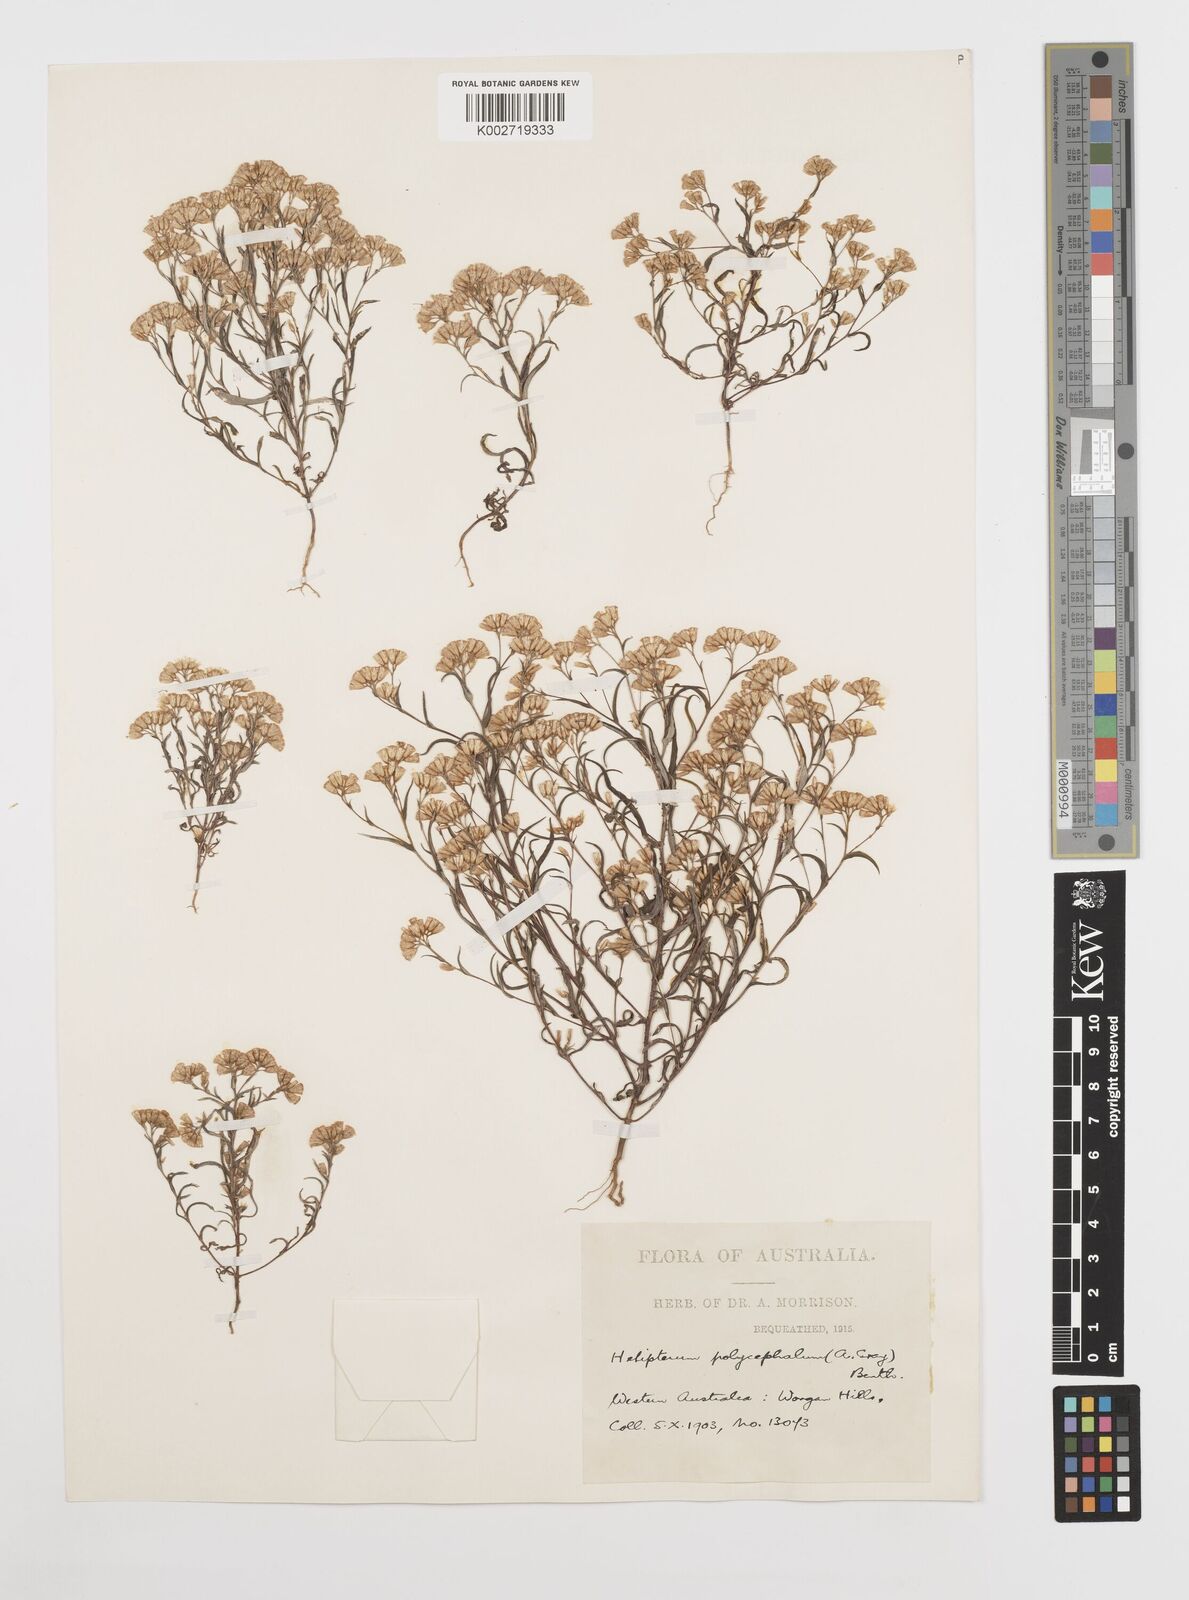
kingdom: Plantae
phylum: Tracheophyta
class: Magnoliopsida
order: Asterales
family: Asteraceae
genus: Rhodanthe
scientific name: Rhodanthe polycephala
